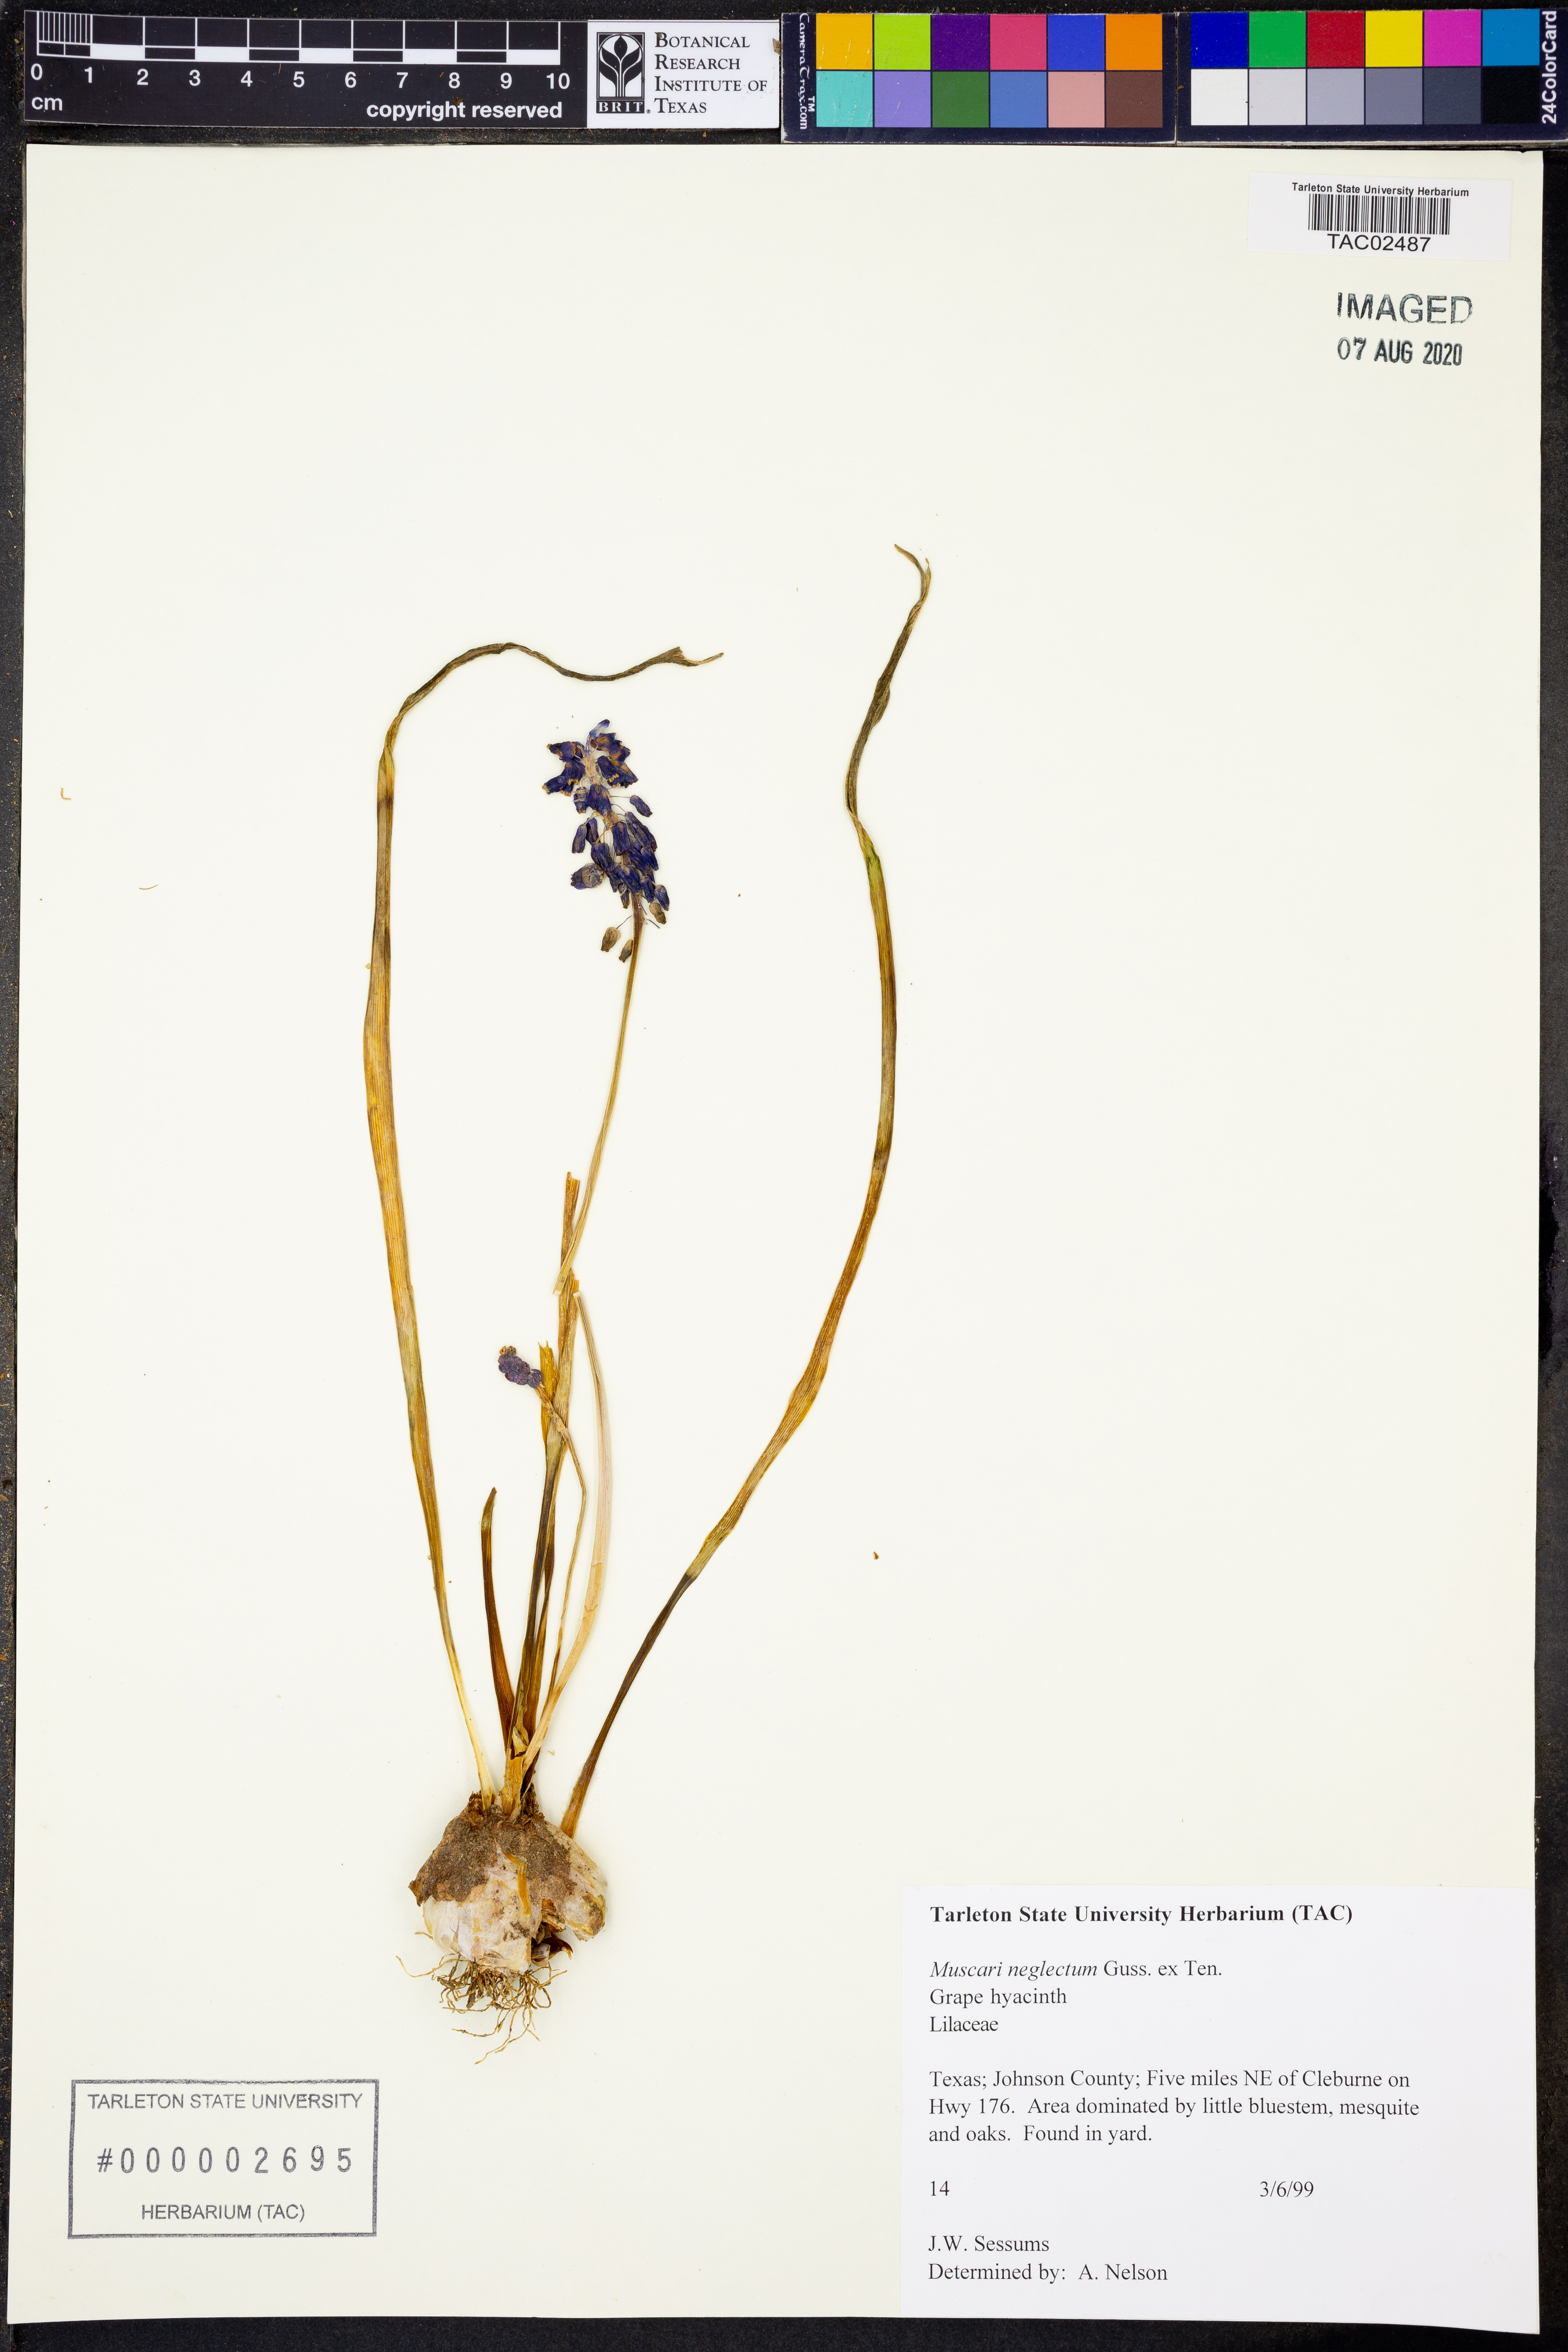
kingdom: Plantae
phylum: Tracheophyta
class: Liliopsida
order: Asparagales
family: Asparagaceae
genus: Muscari
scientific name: Muscari neglectum
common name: Grape-hyacinth
